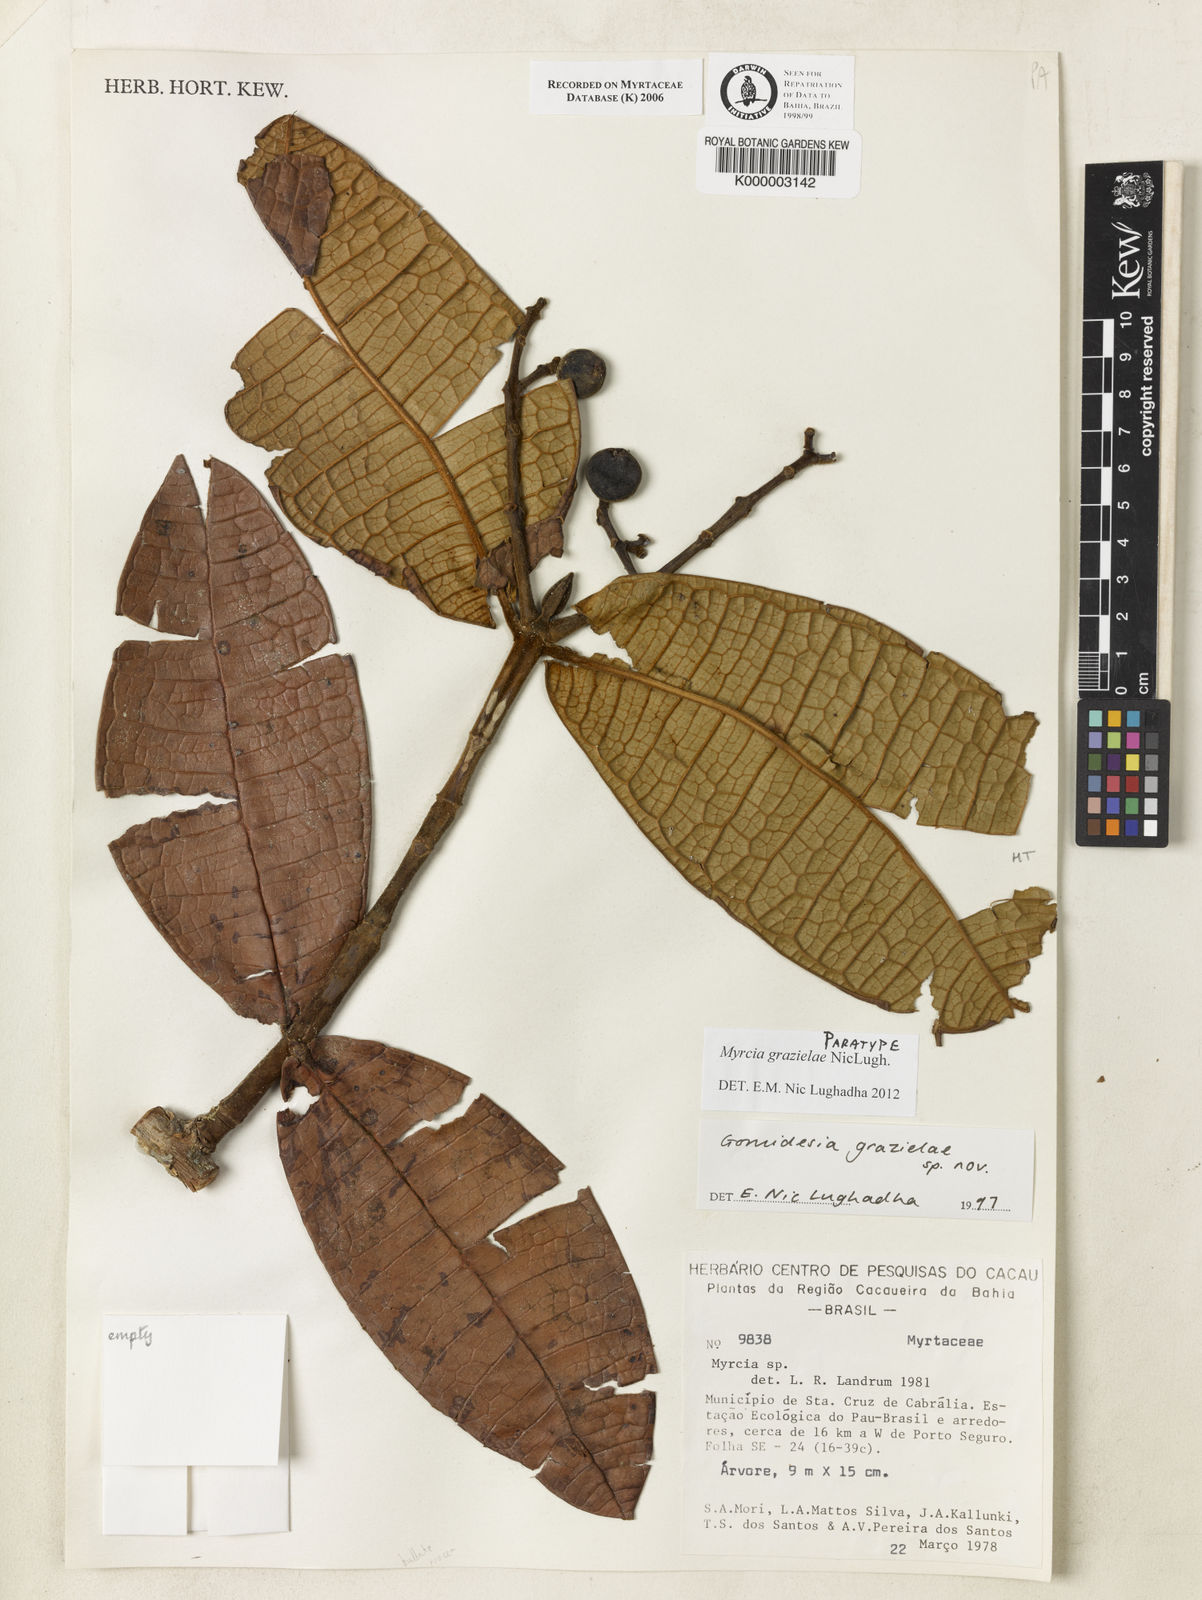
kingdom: Plantae
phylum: Tracheophyta
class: Magnoliopsida
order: Myrtales
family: Myrtaceae
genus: Myrcia
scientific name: Myrcia grazielae
